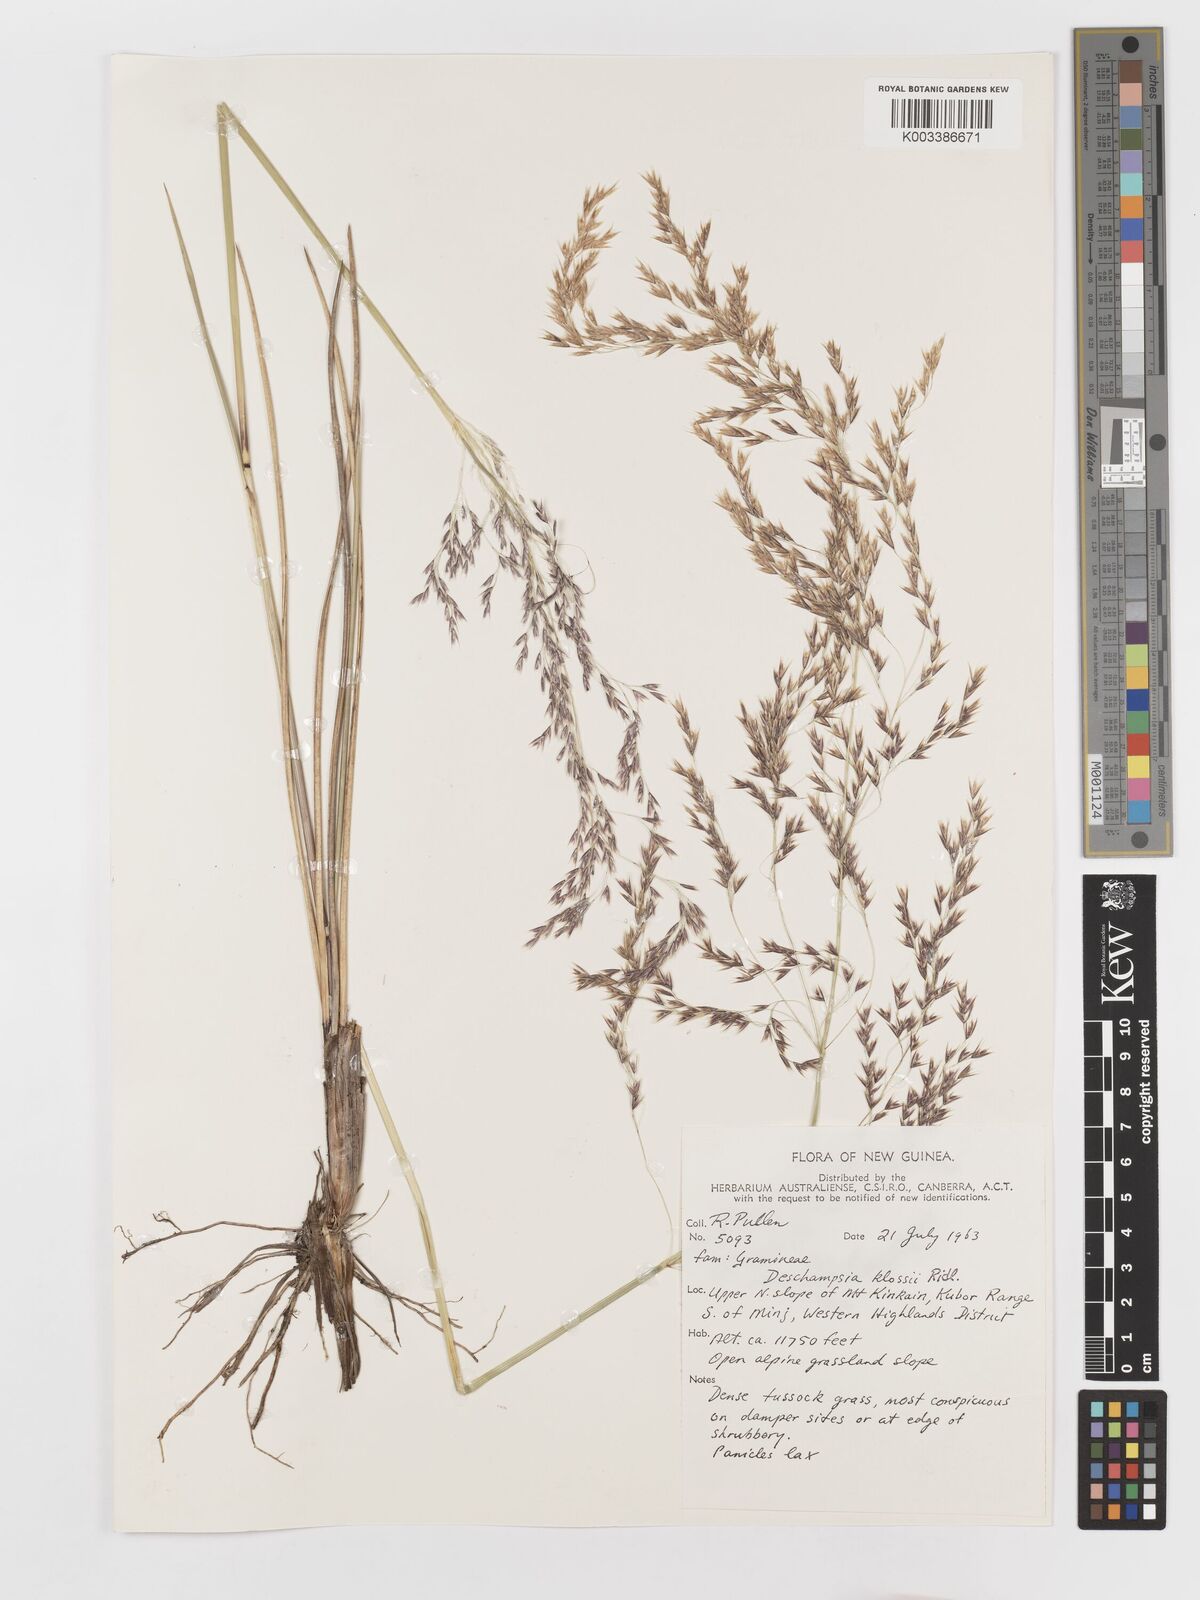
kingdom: Plantae
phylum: Tracheophyta
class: Liliopsida
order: Poales
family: Poaceae
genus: Deschampsia
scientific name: Deschampsia klossii
